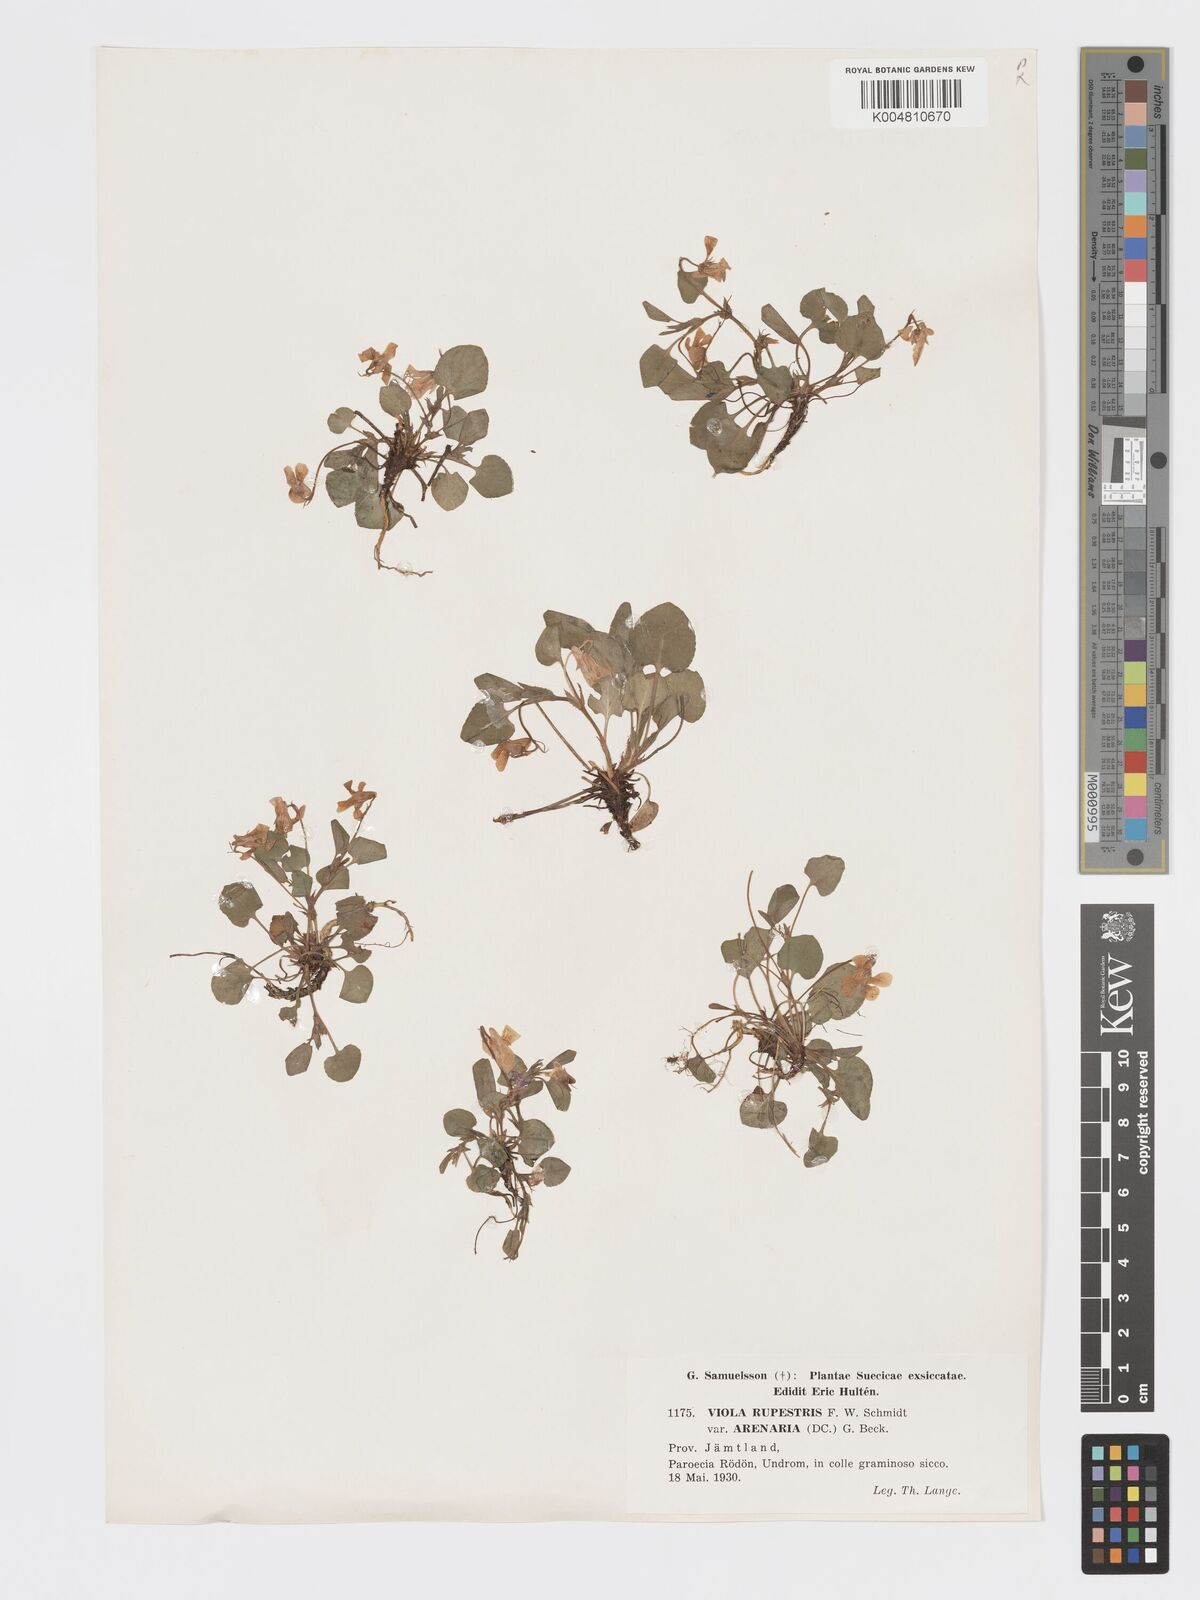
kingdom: Plantae
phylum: Tracheophyta
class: Magnoliopsida
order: Malpighiales
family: Violaceae
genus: Viola
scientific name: Viola rupestris
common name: Teesdale violet
